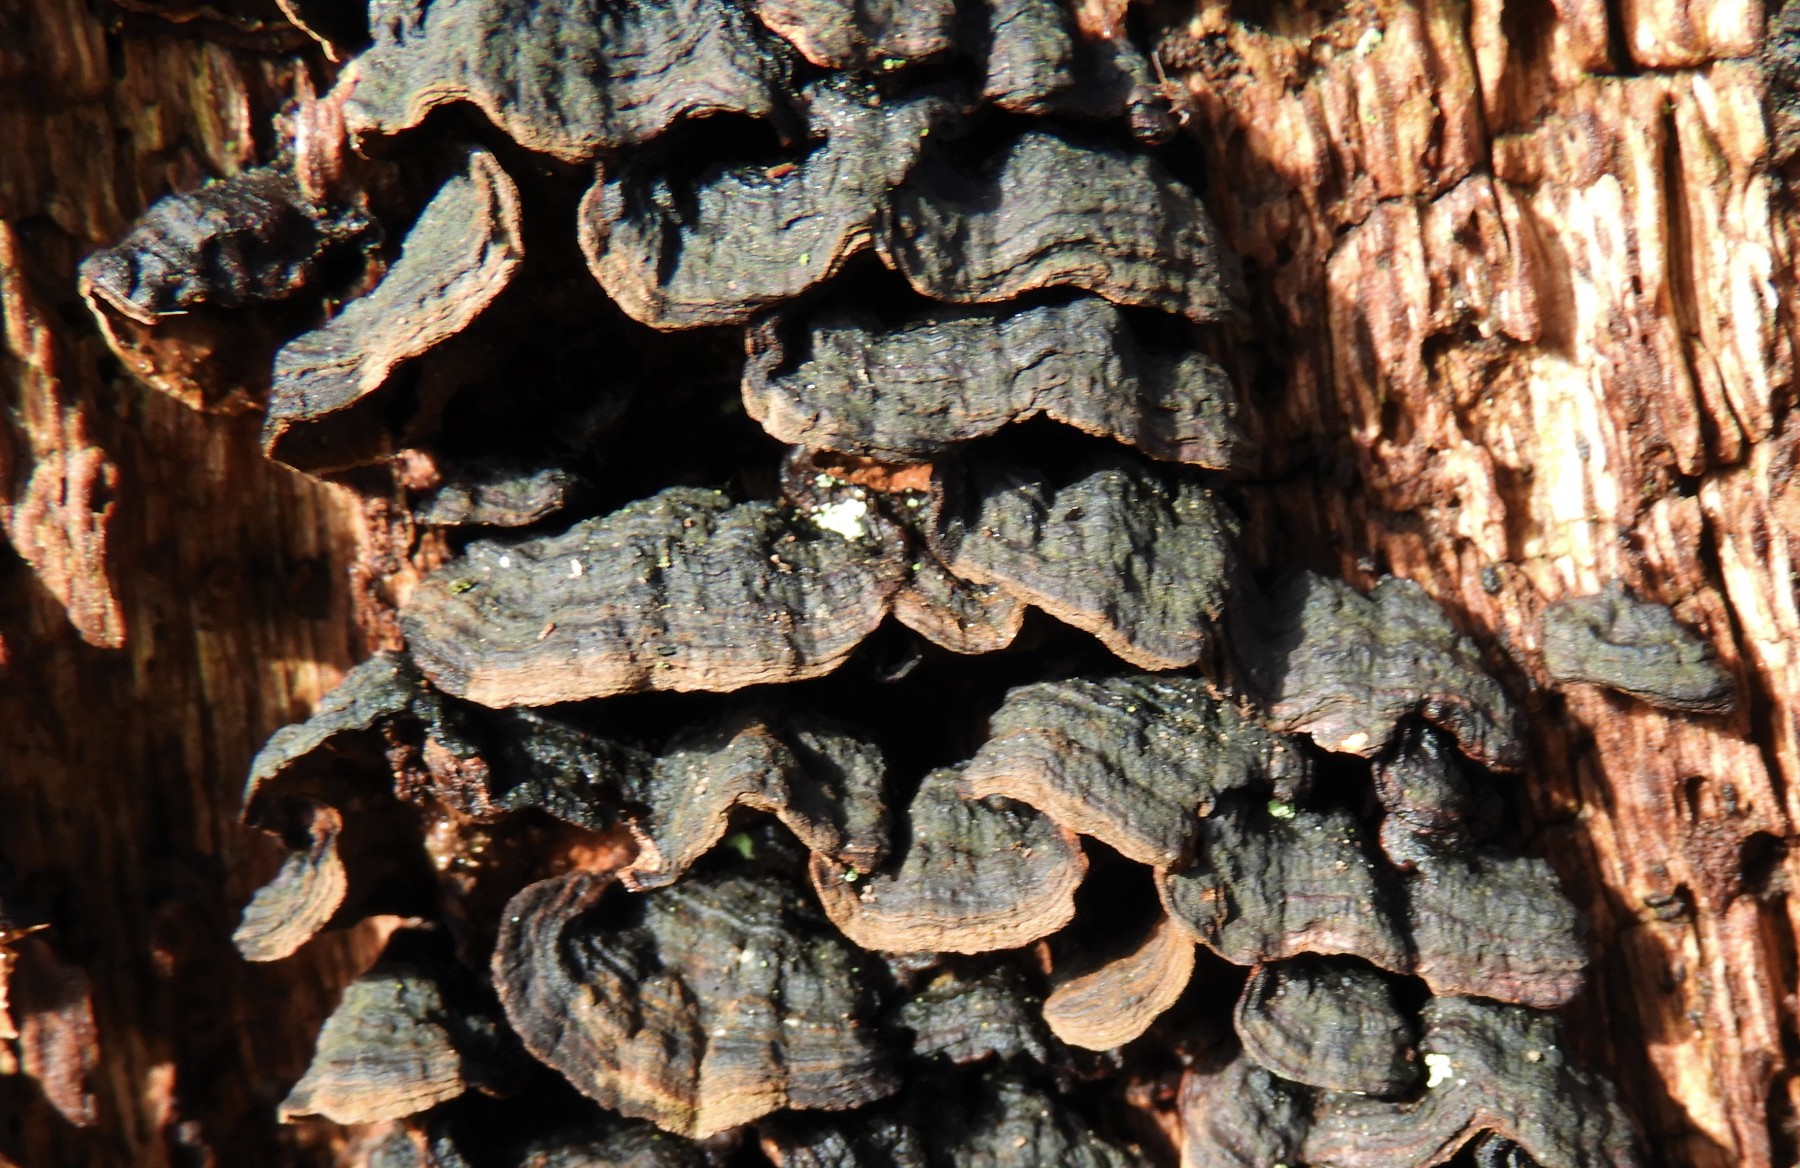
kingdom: Fungi
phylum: Basidiomycota
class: Agaricomycetes
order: Hymenochaetales
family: Hymenochaetaceae
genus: Hymenochaete
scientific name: Hymenochaete rubiginosa
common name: stiv ruslædersvamp
